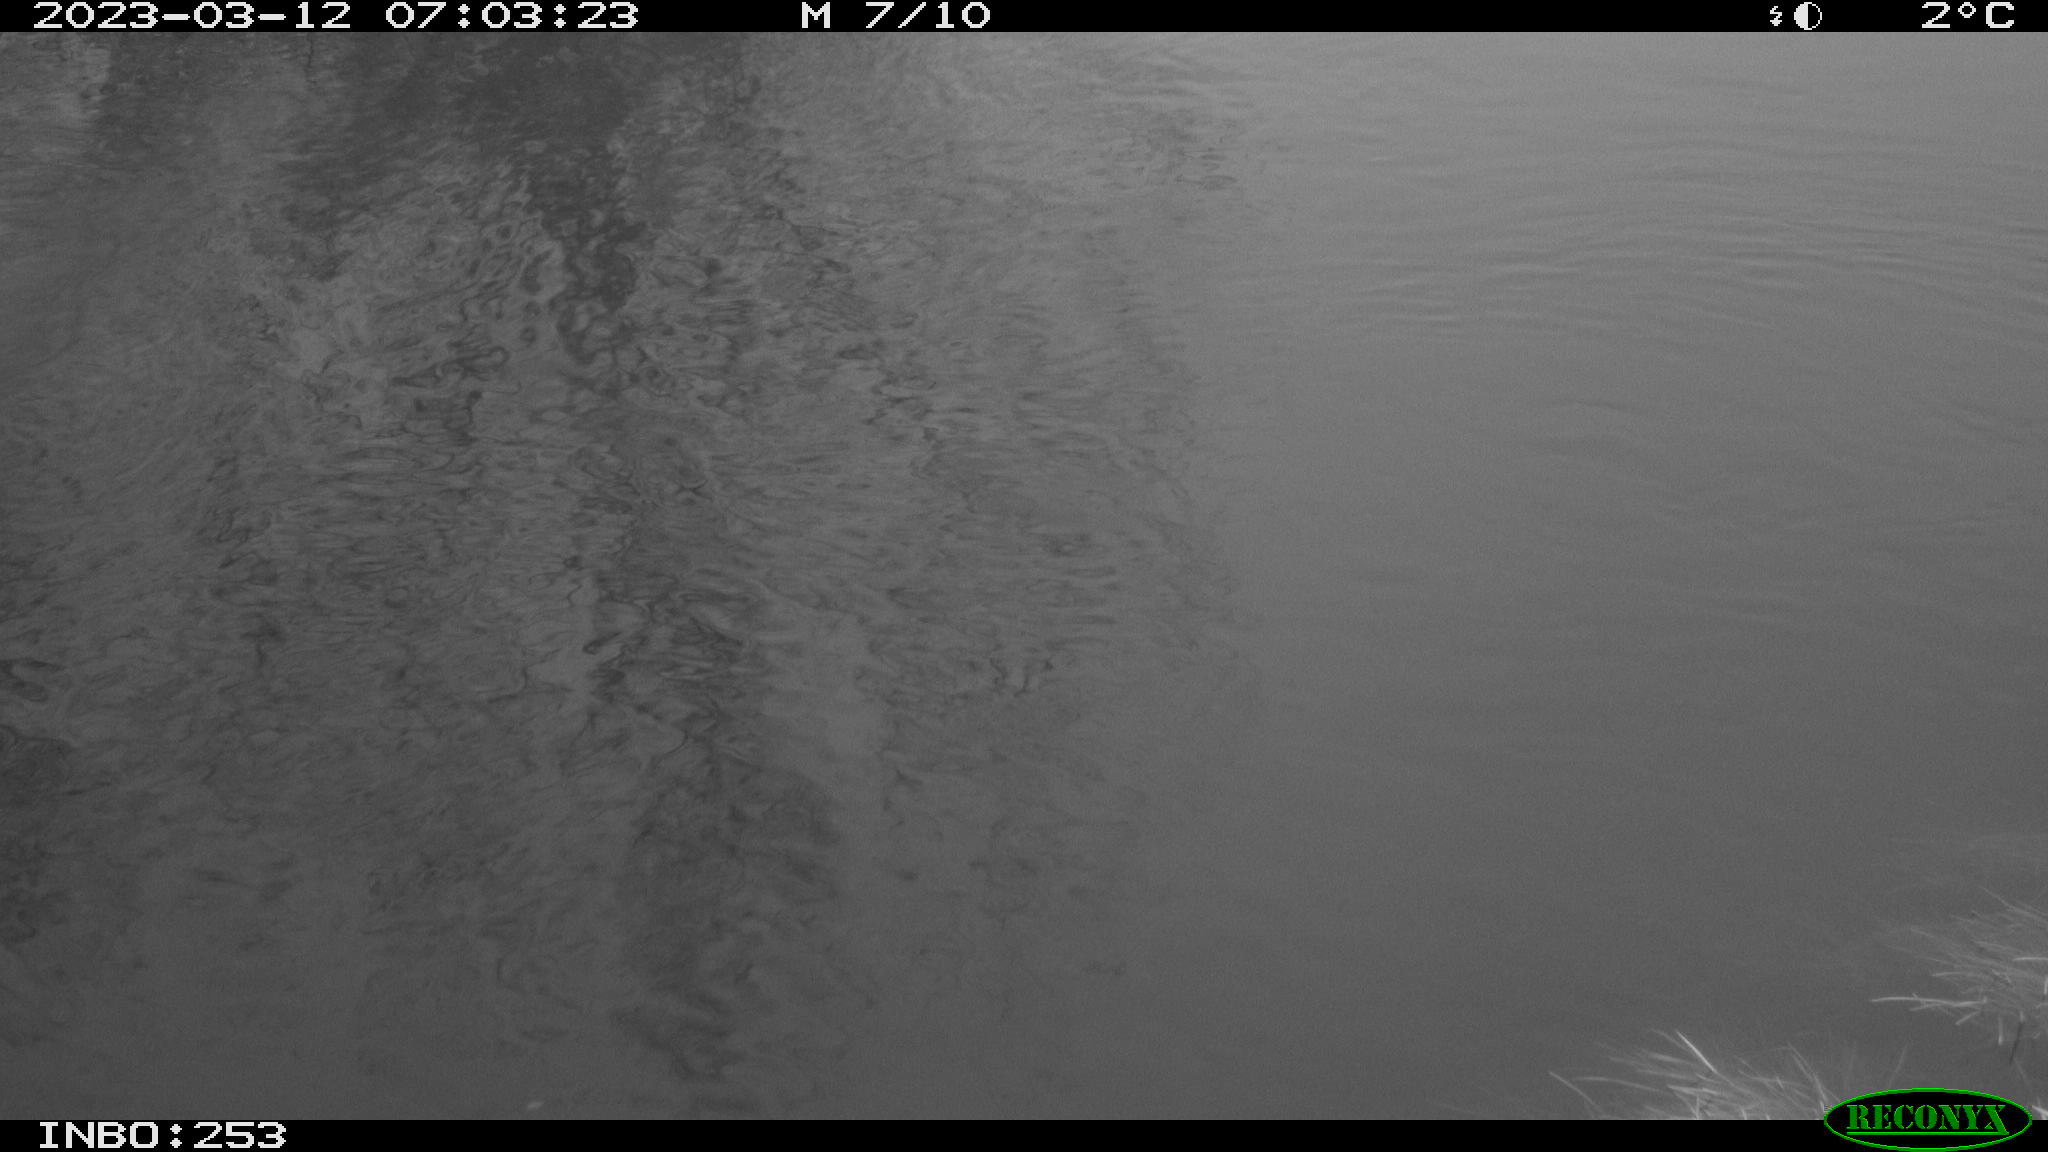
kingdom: Animalia
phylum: Chordata
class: Aves
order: Anseriformes
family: Anatidae
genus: Anas
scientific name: Anas
